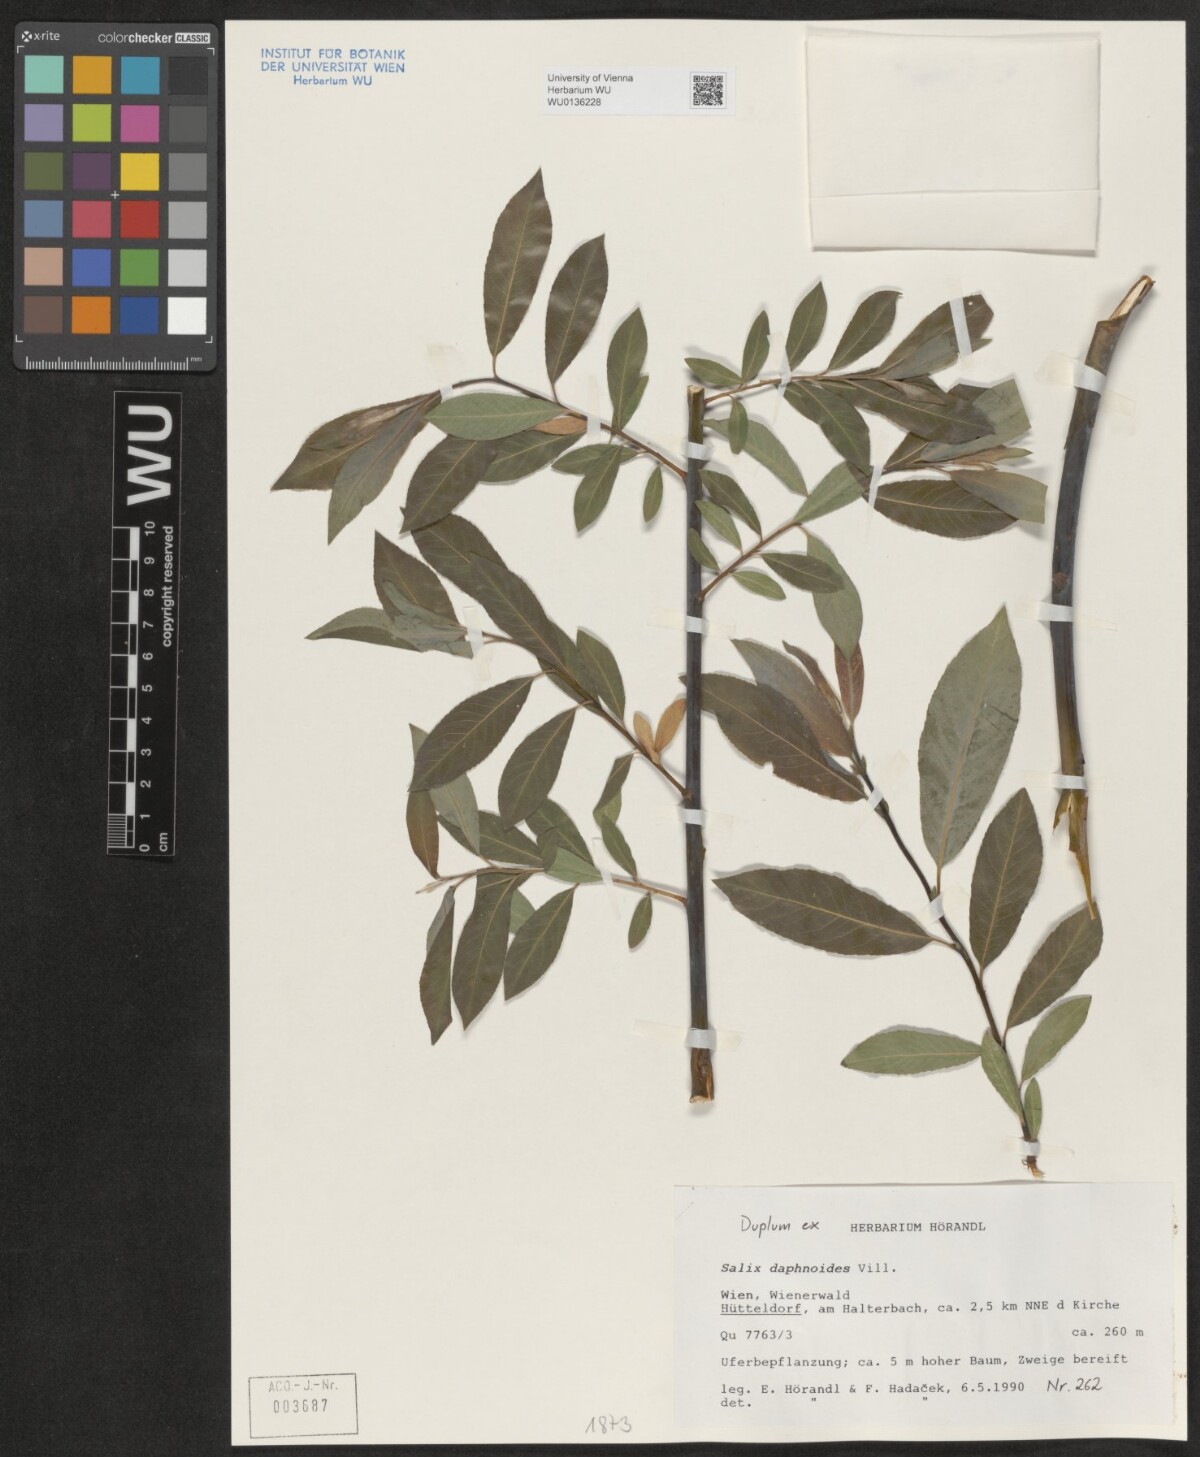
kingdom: Plantae
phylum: Tracheophyta
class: Magnoliopsida
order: Malpighiales
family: Salicaceae
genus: Salix
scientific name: Salix daphnoides
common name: European violet-willow
